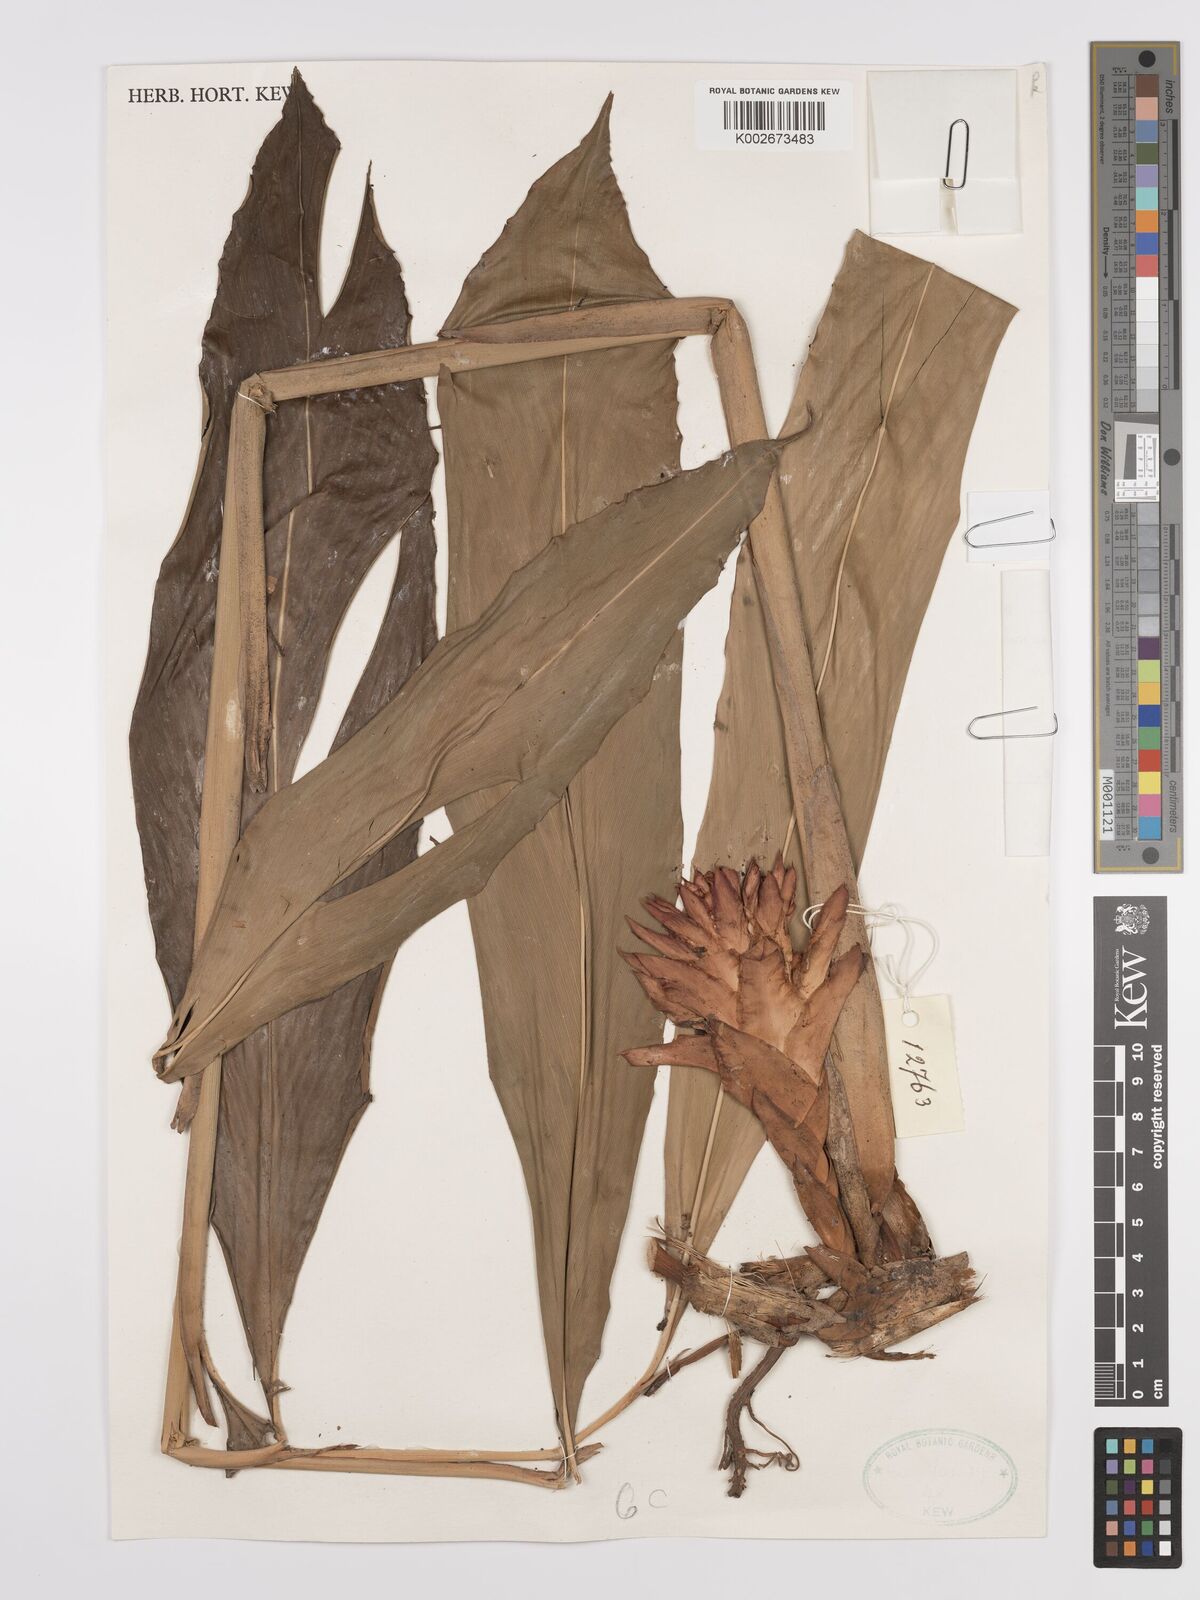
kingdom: Plantae
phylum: Tracheophyta
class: Liliopsida
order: Zingiberales
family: Zingiberaceae
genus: Epiamomum
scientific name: Epiamomum roseisquamosum
